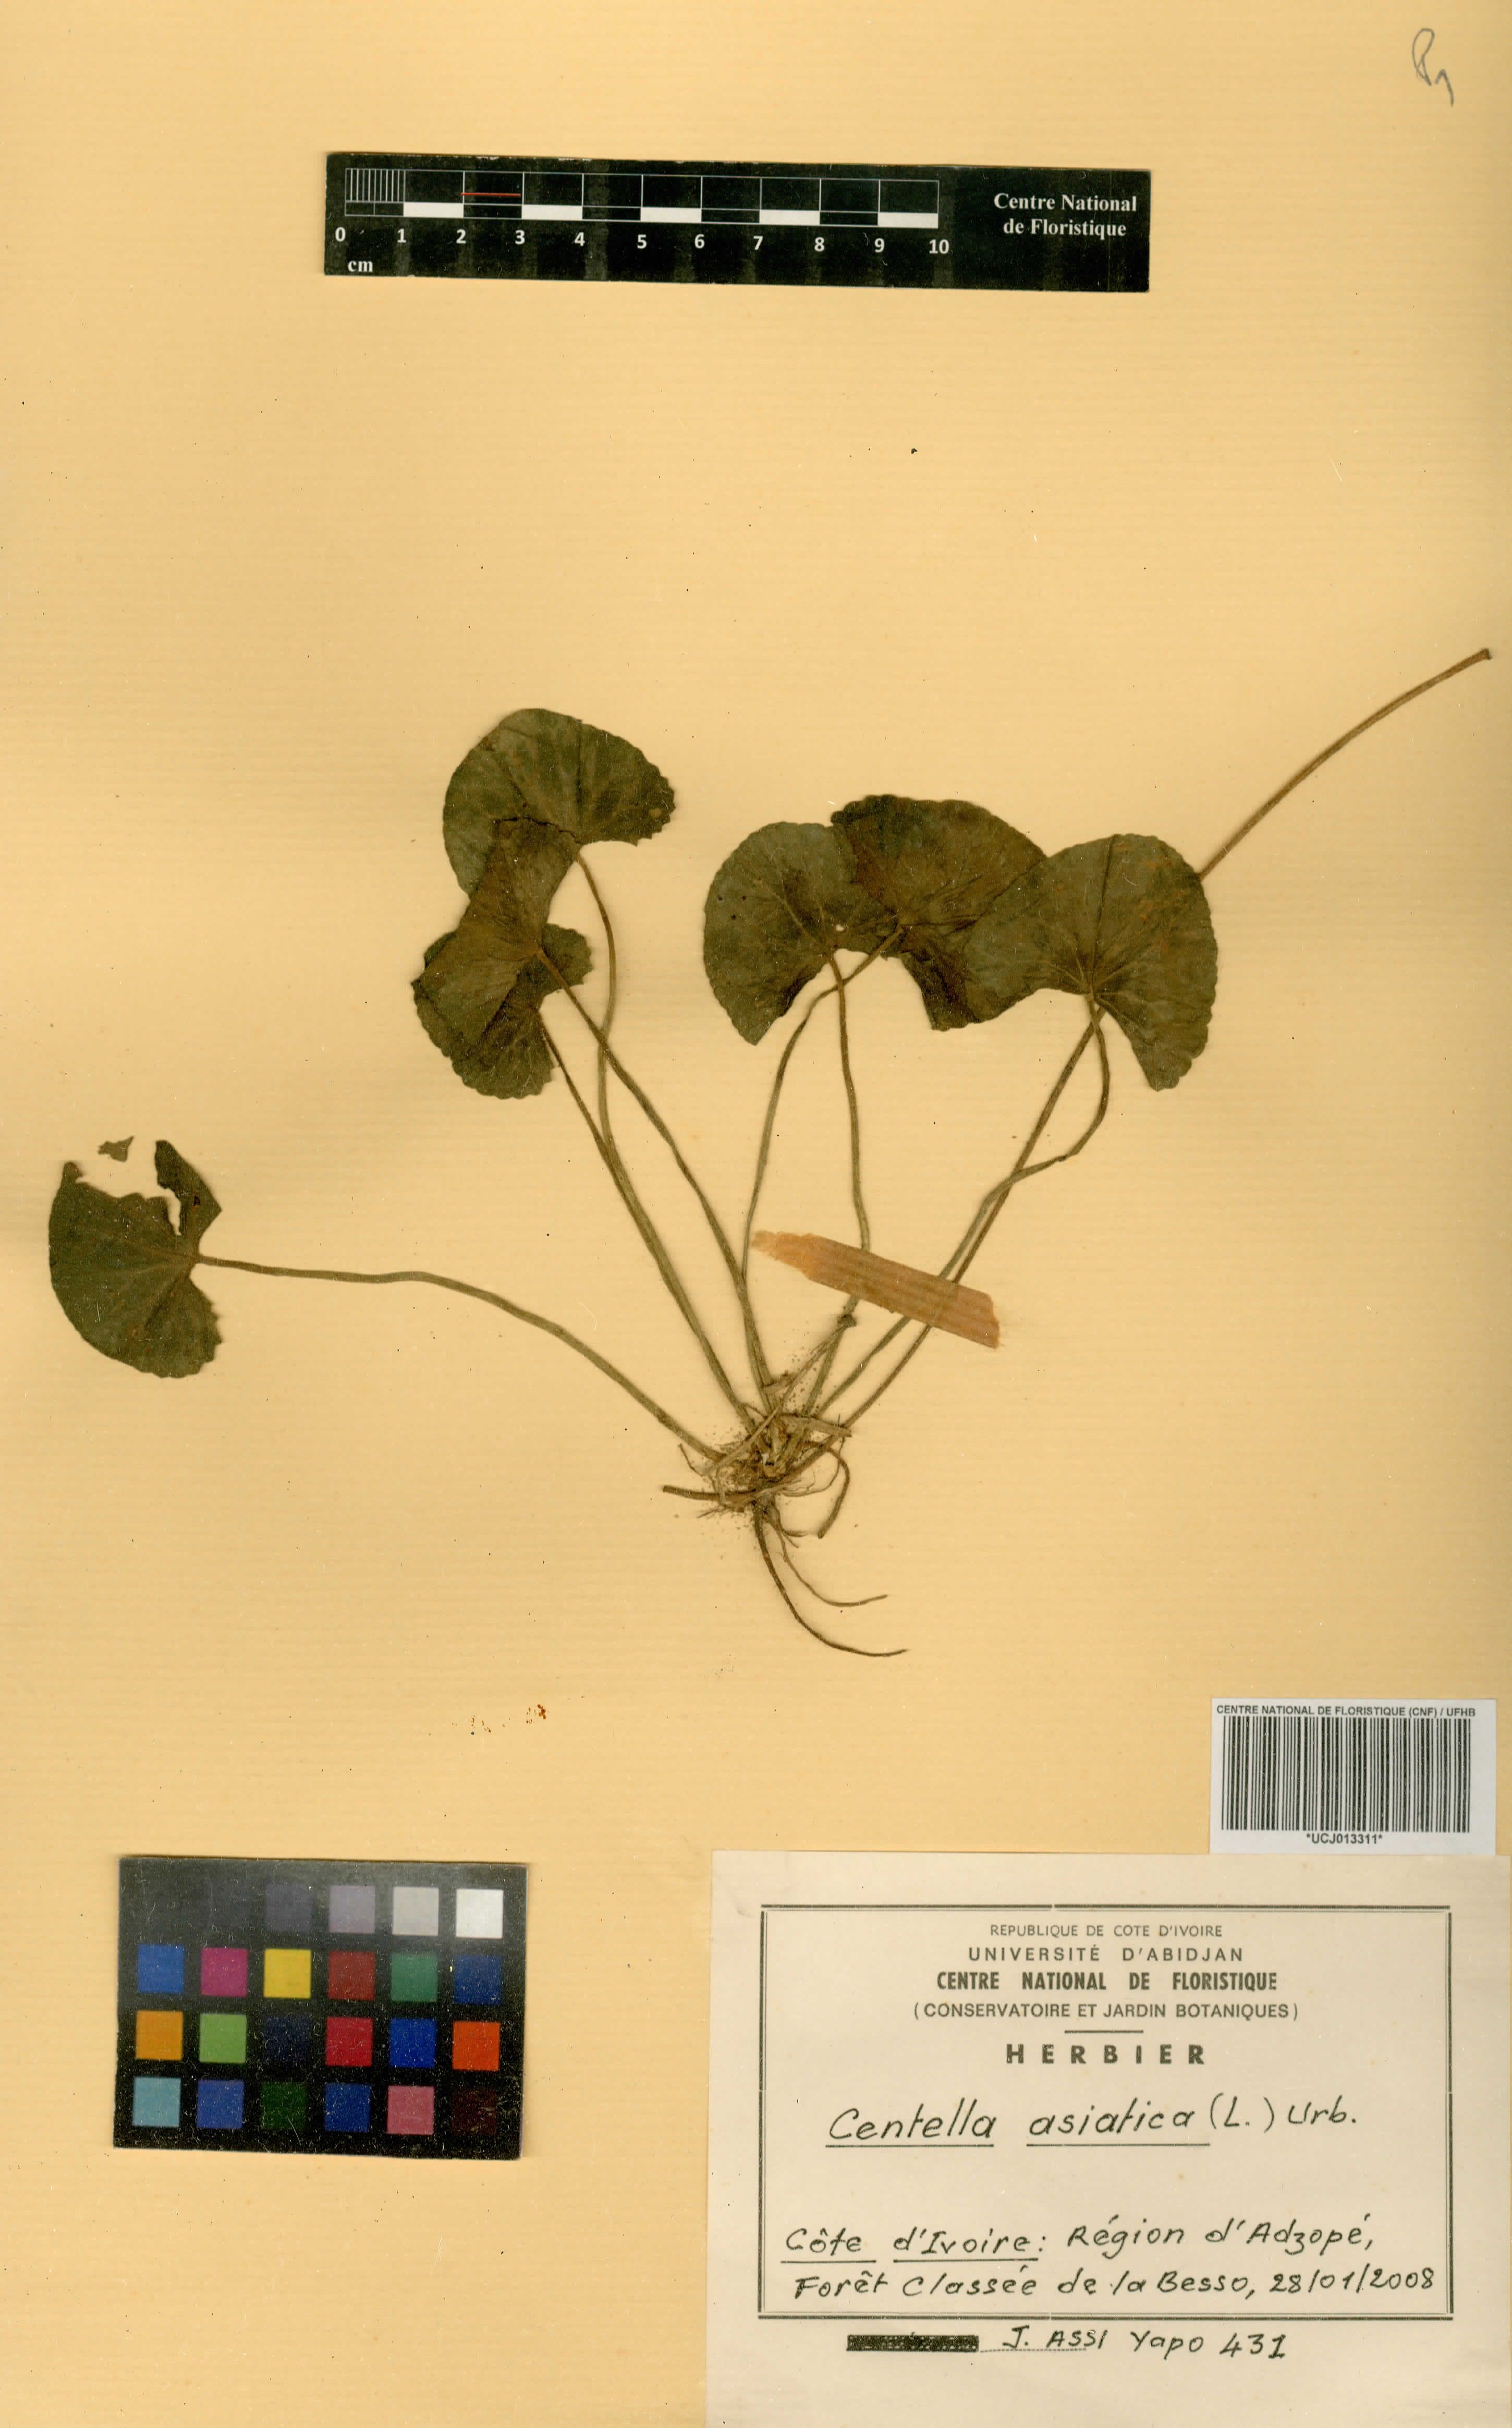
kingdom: Plantae
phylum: Tracheophyta
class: Magnoliopsida
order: Apiales
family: Apiaceae
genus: Centella
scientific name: Centella asiatica
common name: Spadeleaf
